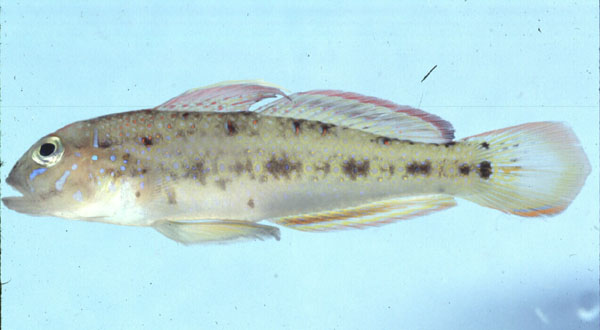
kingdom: Animalia
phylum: Chordata
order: Perciformes
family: Gobiidae
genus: Oplopomus
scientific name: Oplopomus oplopomus
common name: Spinecheek goby
